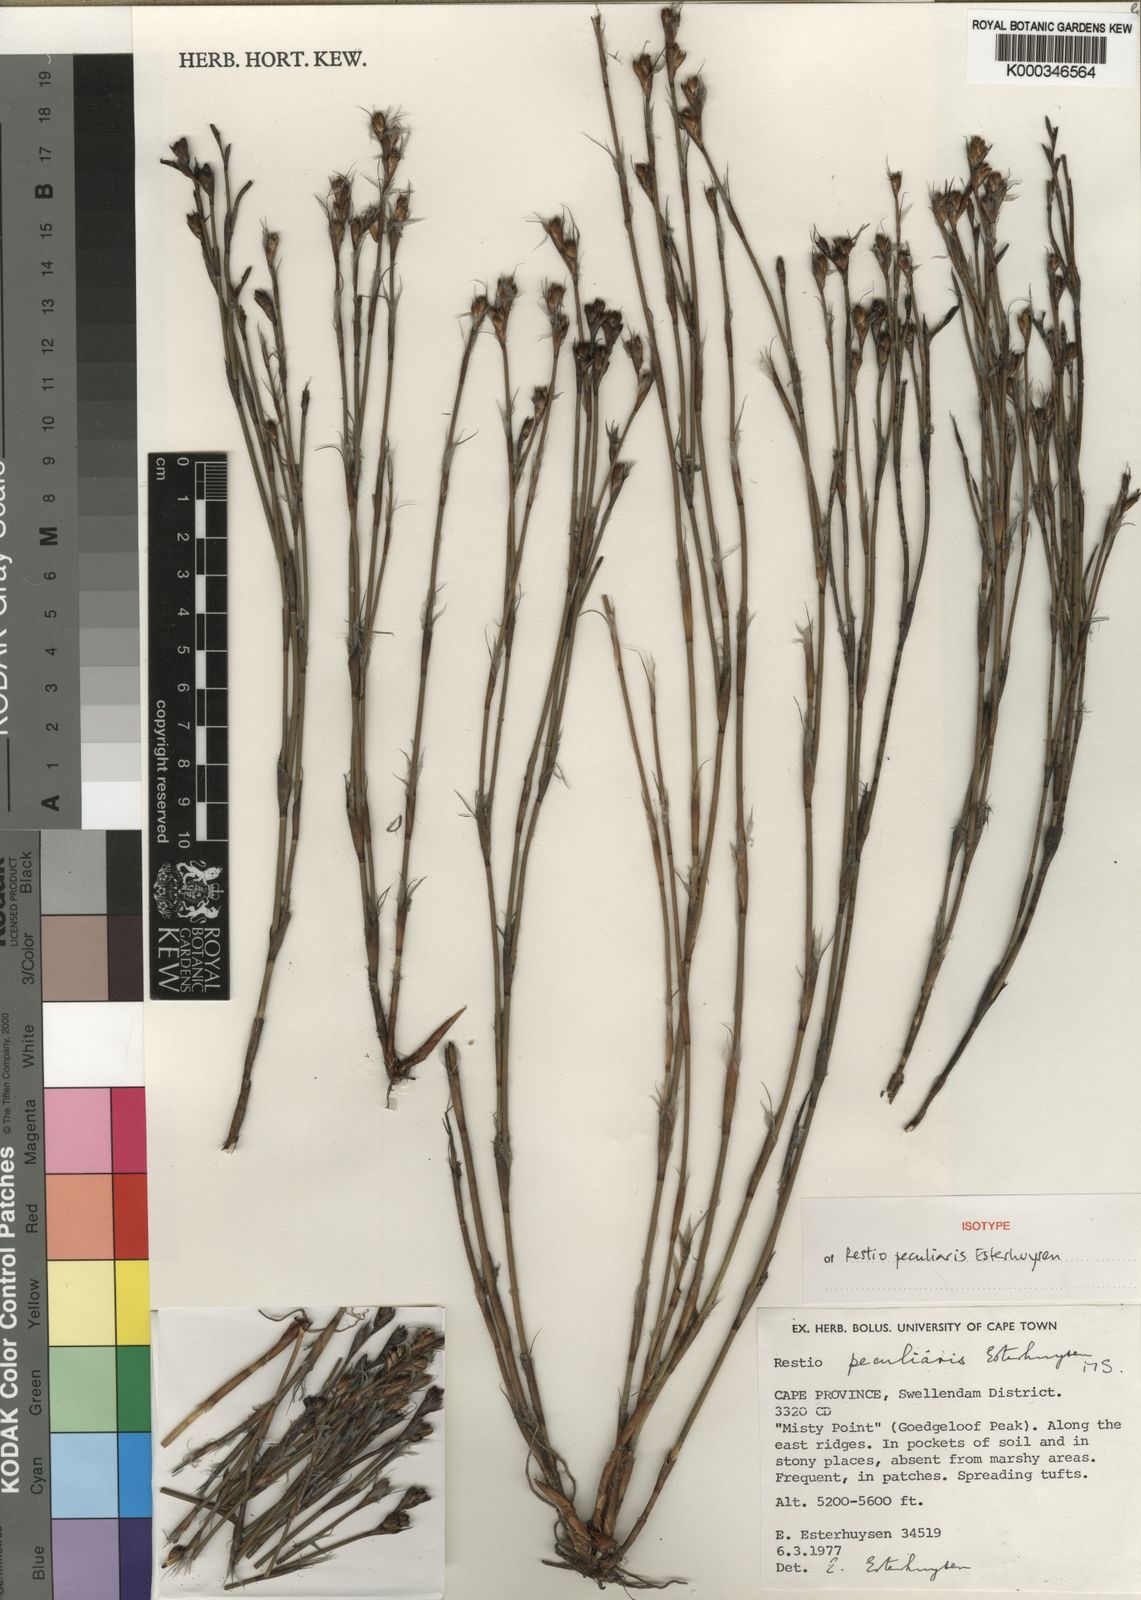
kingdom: Plantae
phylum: Tracheophyta
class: Liliopsida
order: Poales
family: Restionaceae
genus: Restio
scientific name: Restio peculiaris
